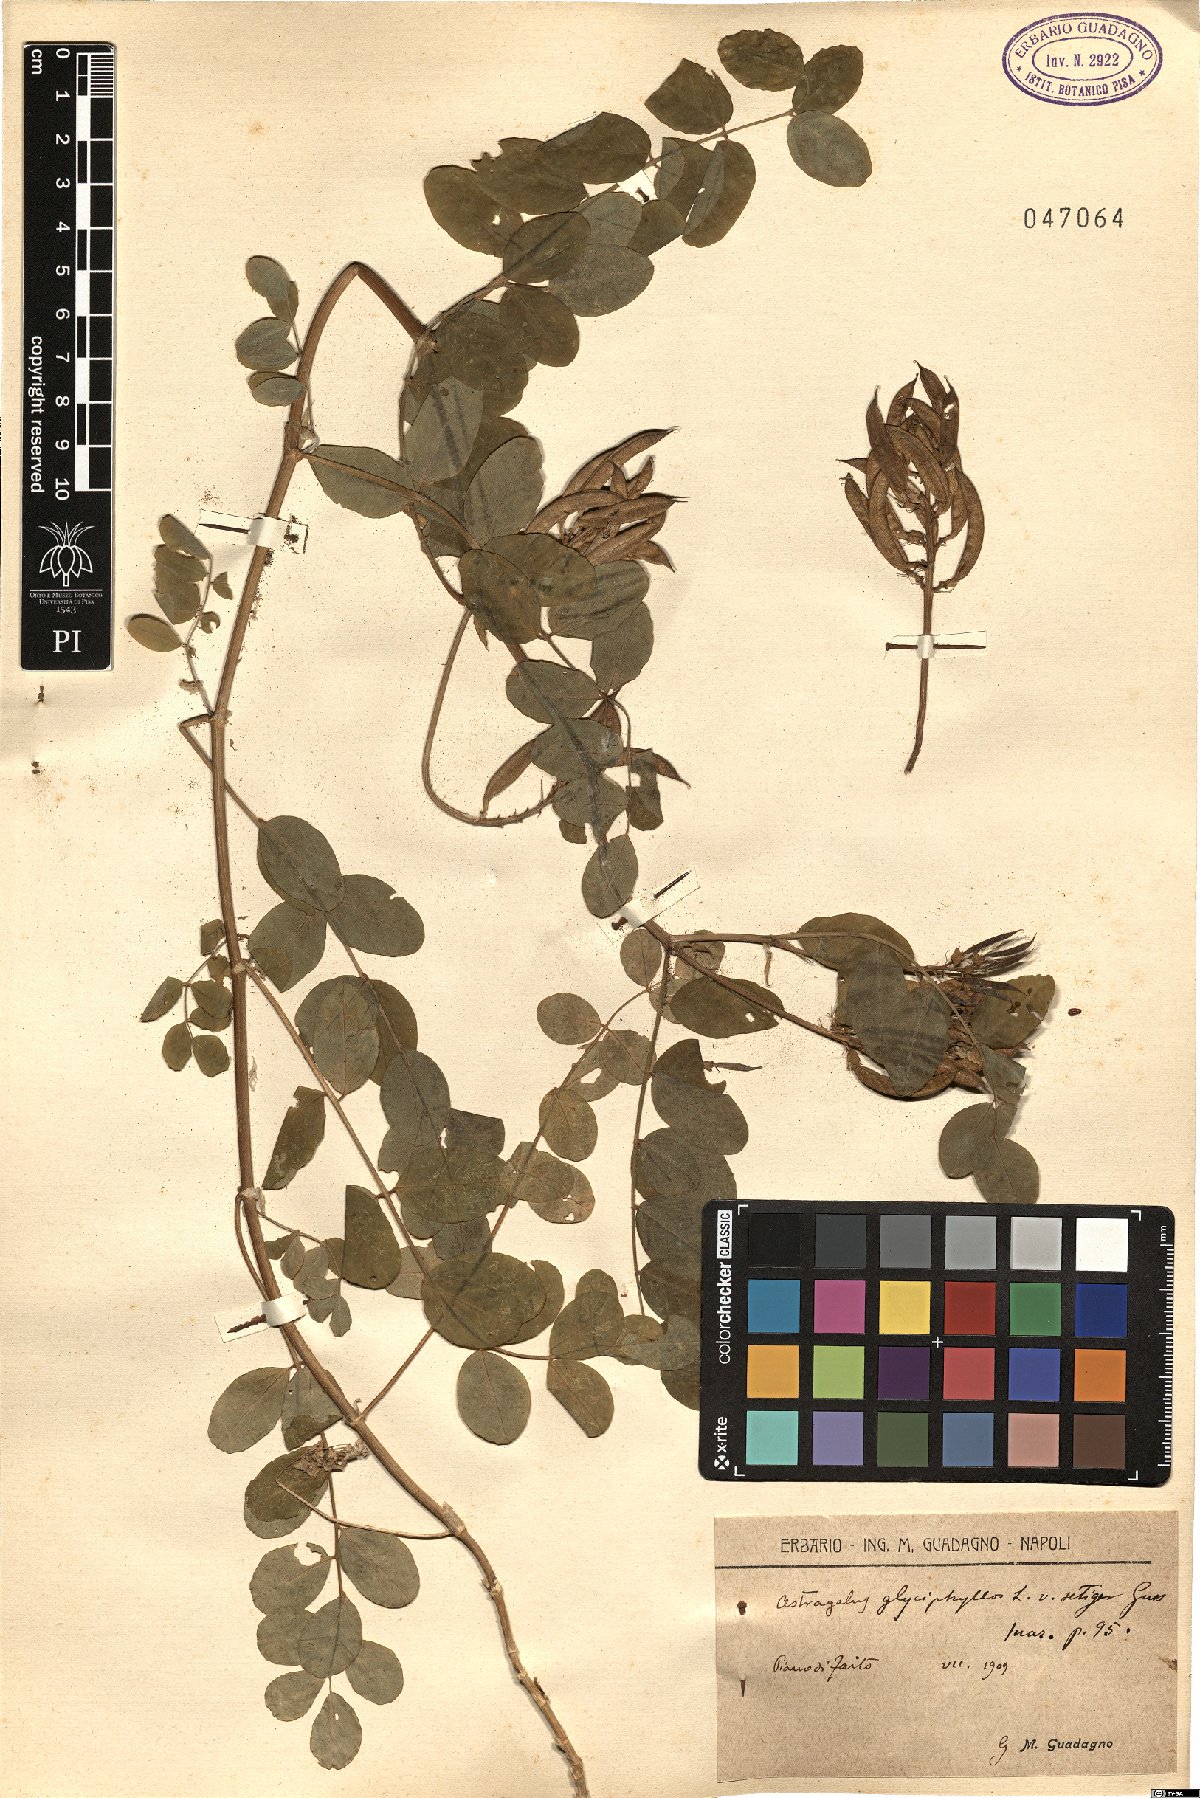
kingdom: Plantae
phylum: Tracheophyta
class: Magnoliopsida
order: Fabales
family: Fabaceae
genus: Astragalus
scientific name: Astragalus glycyphyllos
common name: Wild liquorice
